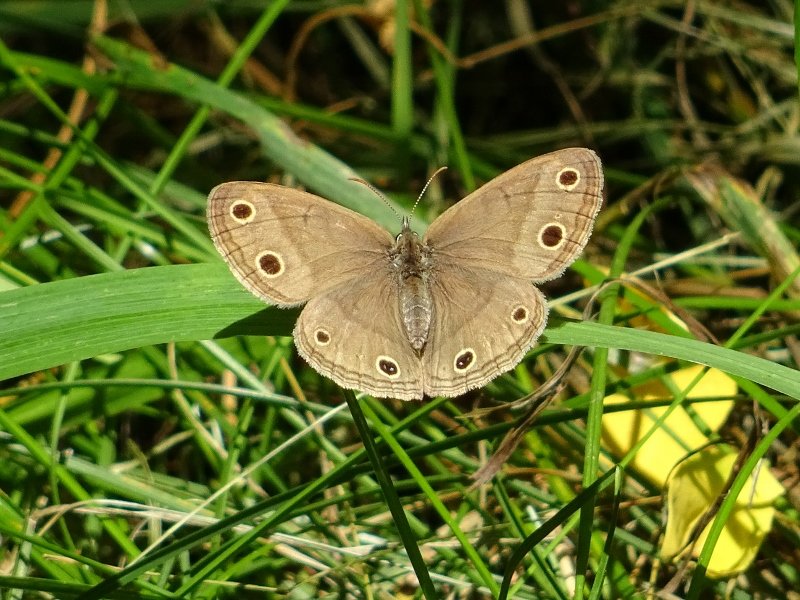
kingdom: Animalia
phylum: Arthropoda
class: Insecta
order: Lepidoptera
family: Nymphalidae
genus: Euptychia
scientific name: Euptychia cymela
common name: Little Wood Satyr
